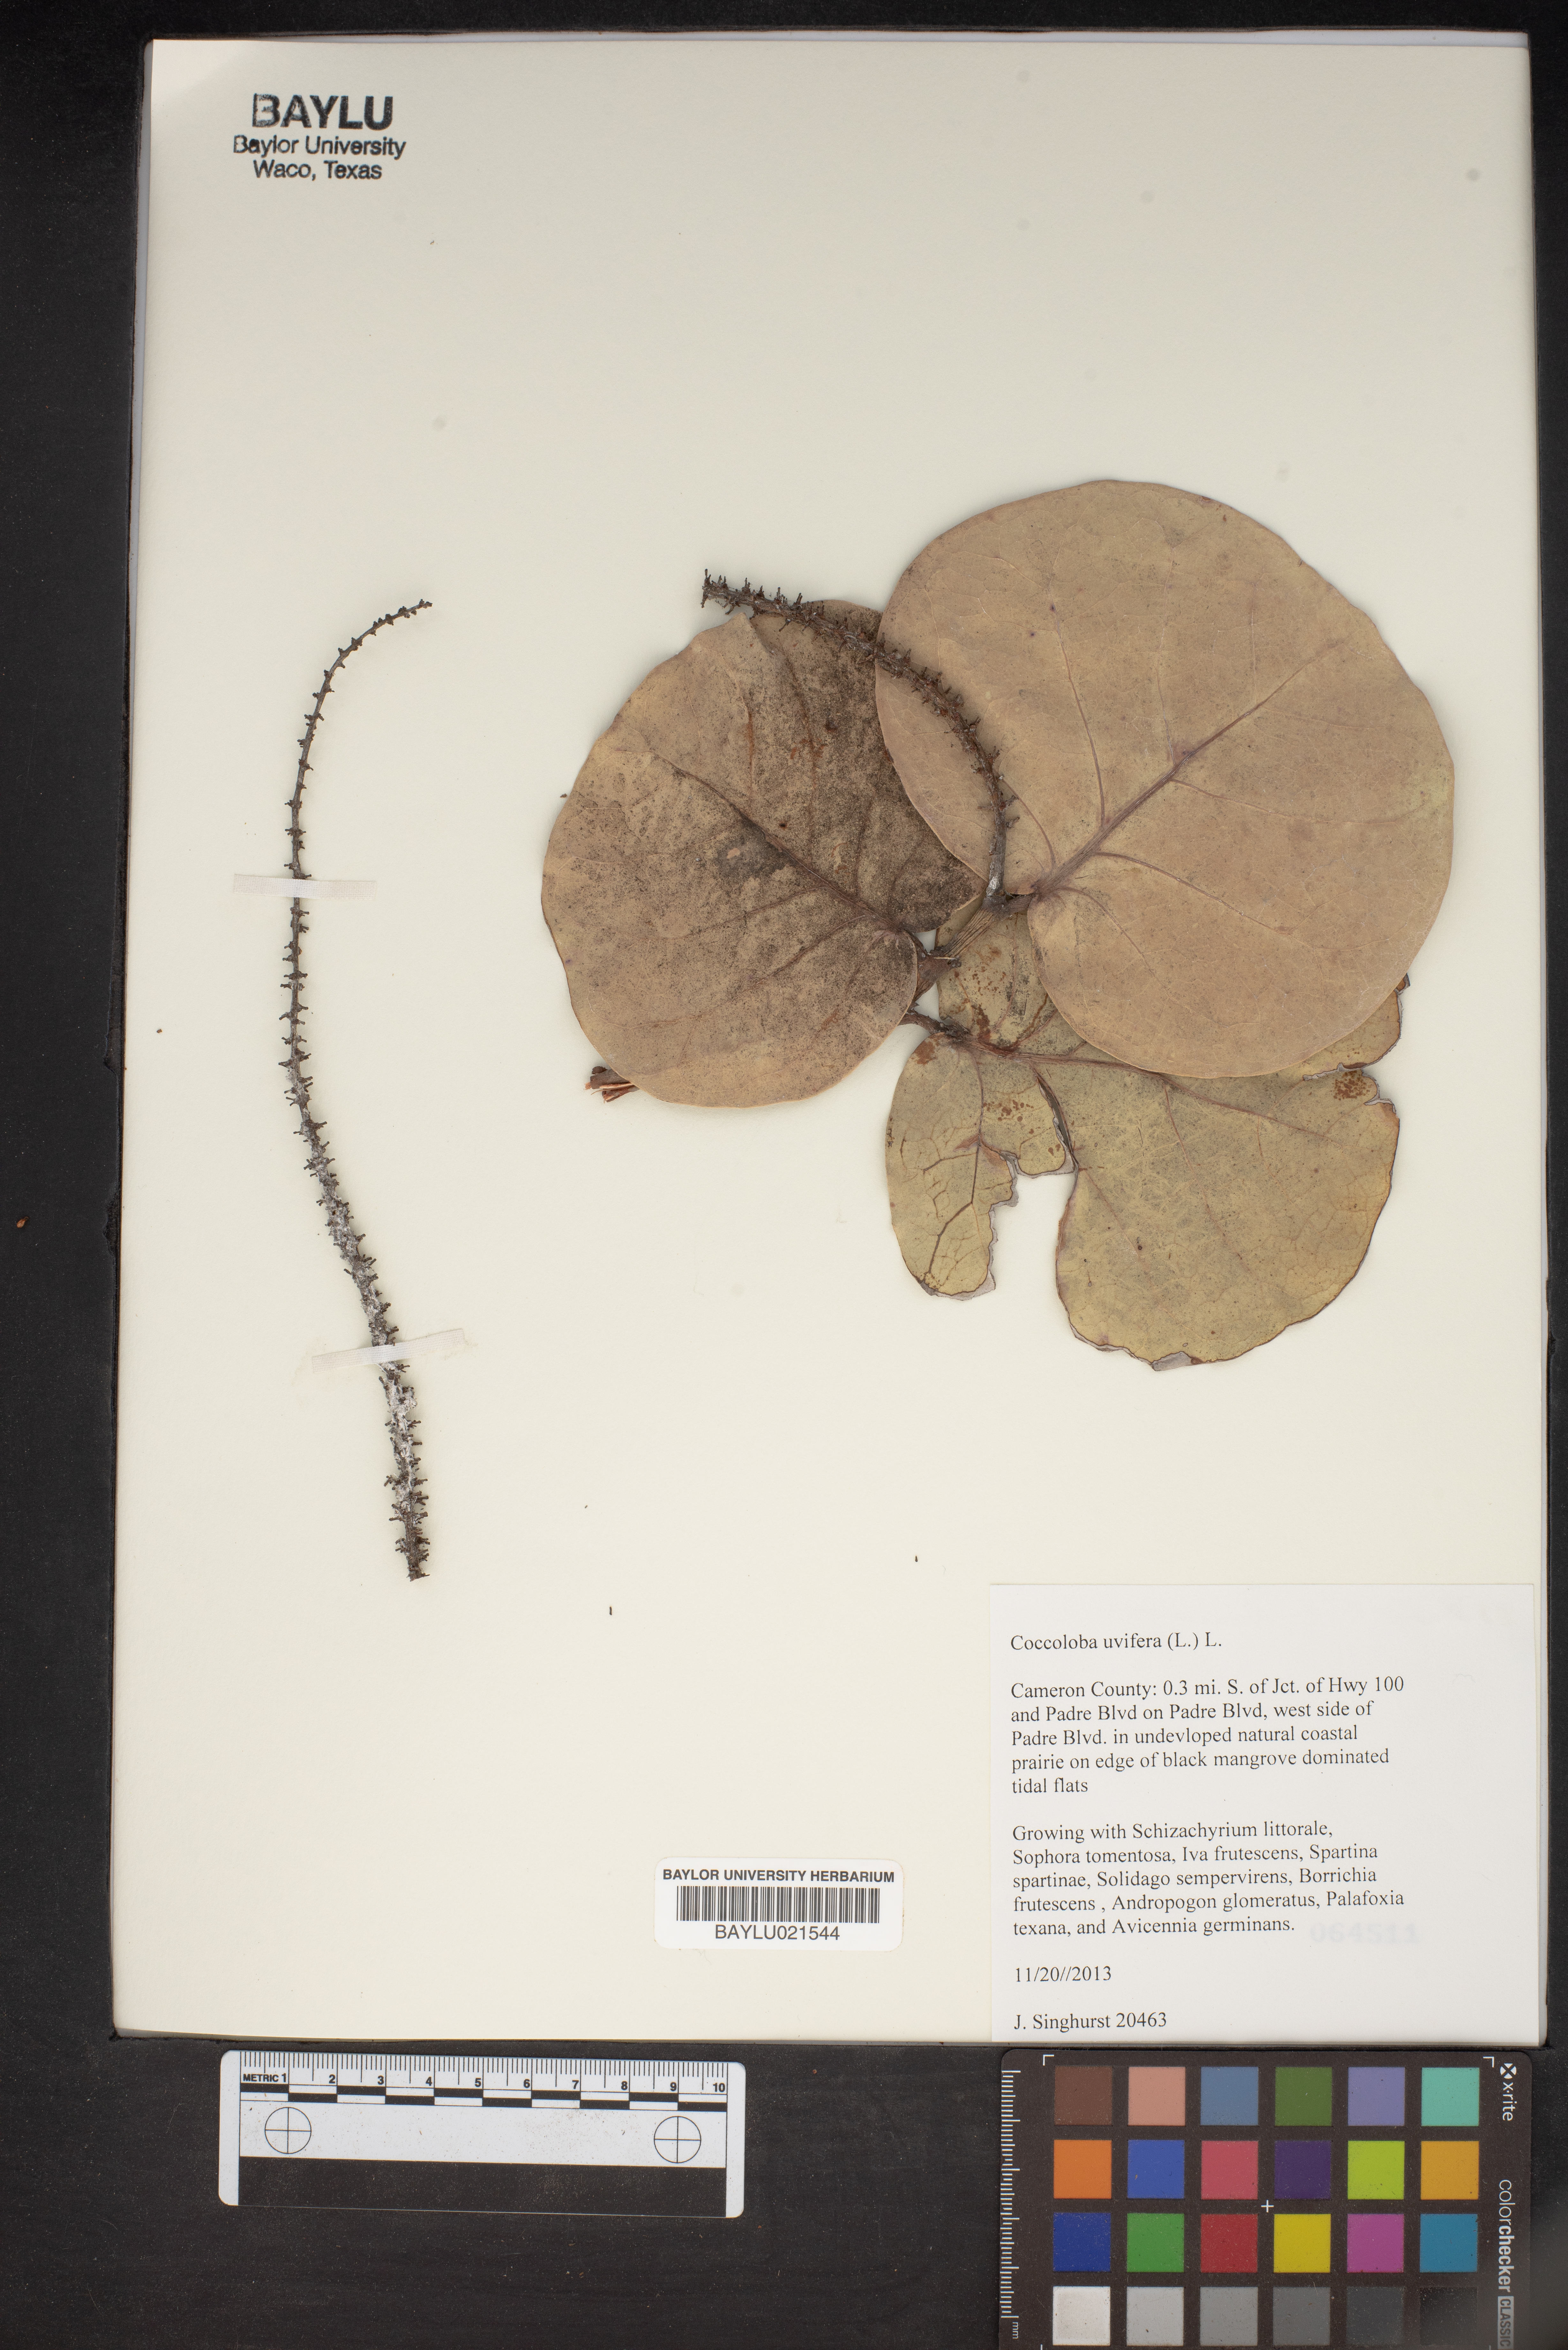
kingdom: Plantae
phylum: Tracheophyta
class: Magnoliopsida
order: Caryophyllales
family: Polygonaceae
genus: Coccoloba
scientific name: Coccoloba uvifera
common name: Seagrape
